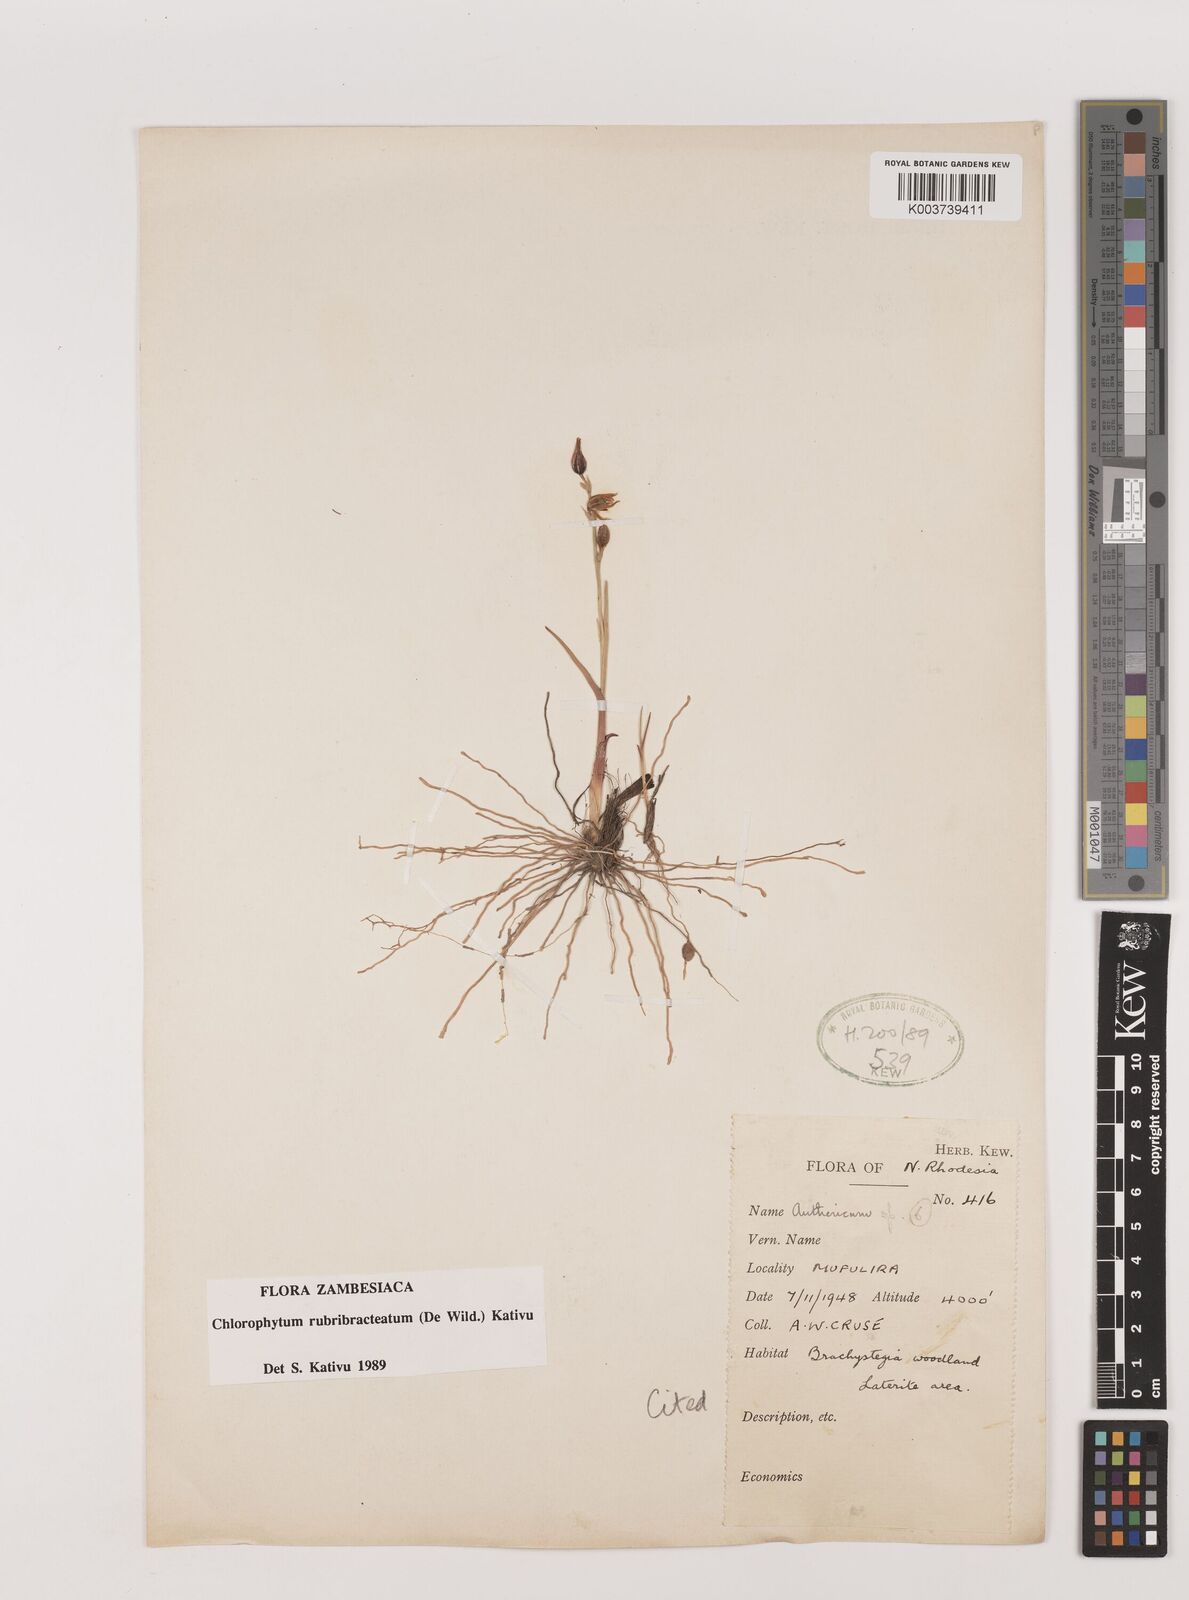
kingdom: Plantae
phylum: Tracheophyta
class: Liliopsida
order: Asparagales
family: Asparagaceae
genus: Chlorophytum
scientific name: Chlorophytum rubribracteatum
